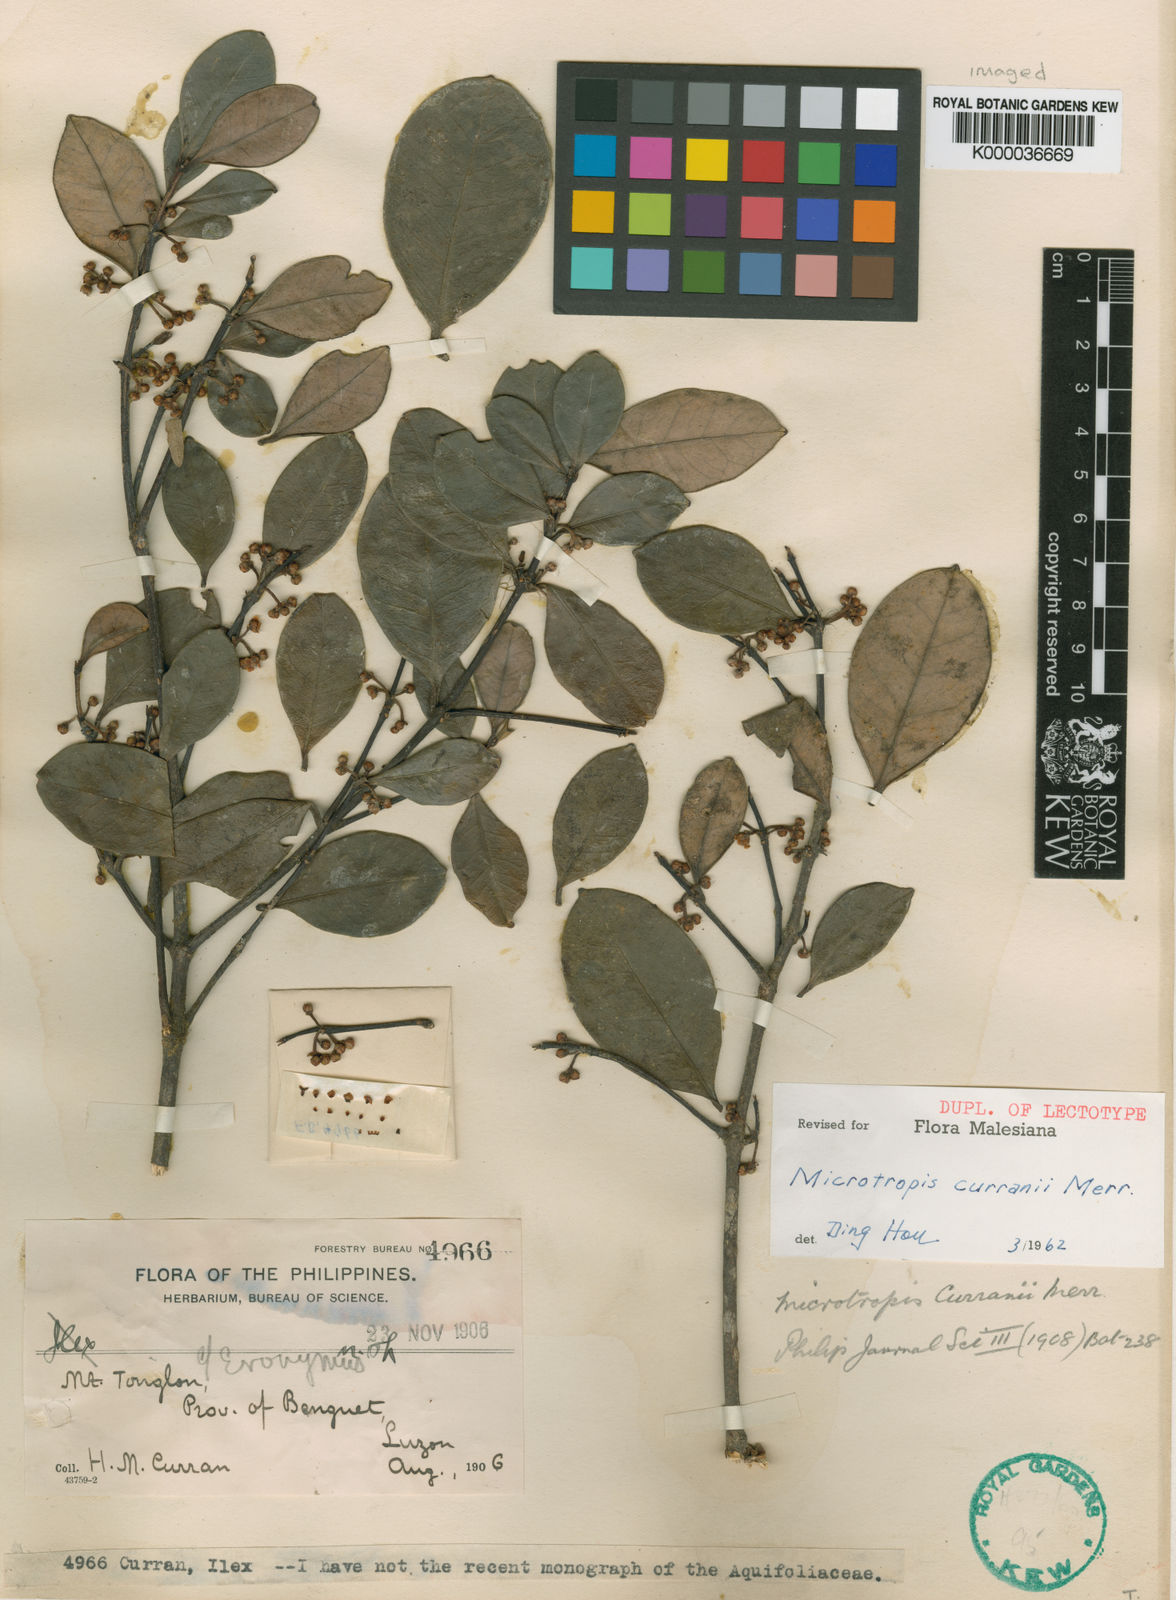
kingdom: Plantae
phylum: Tracheophyta
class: Magnoliopsida
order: Celastrales
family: Celastraceae
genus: Microtropis
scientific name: Microtropis curranii
